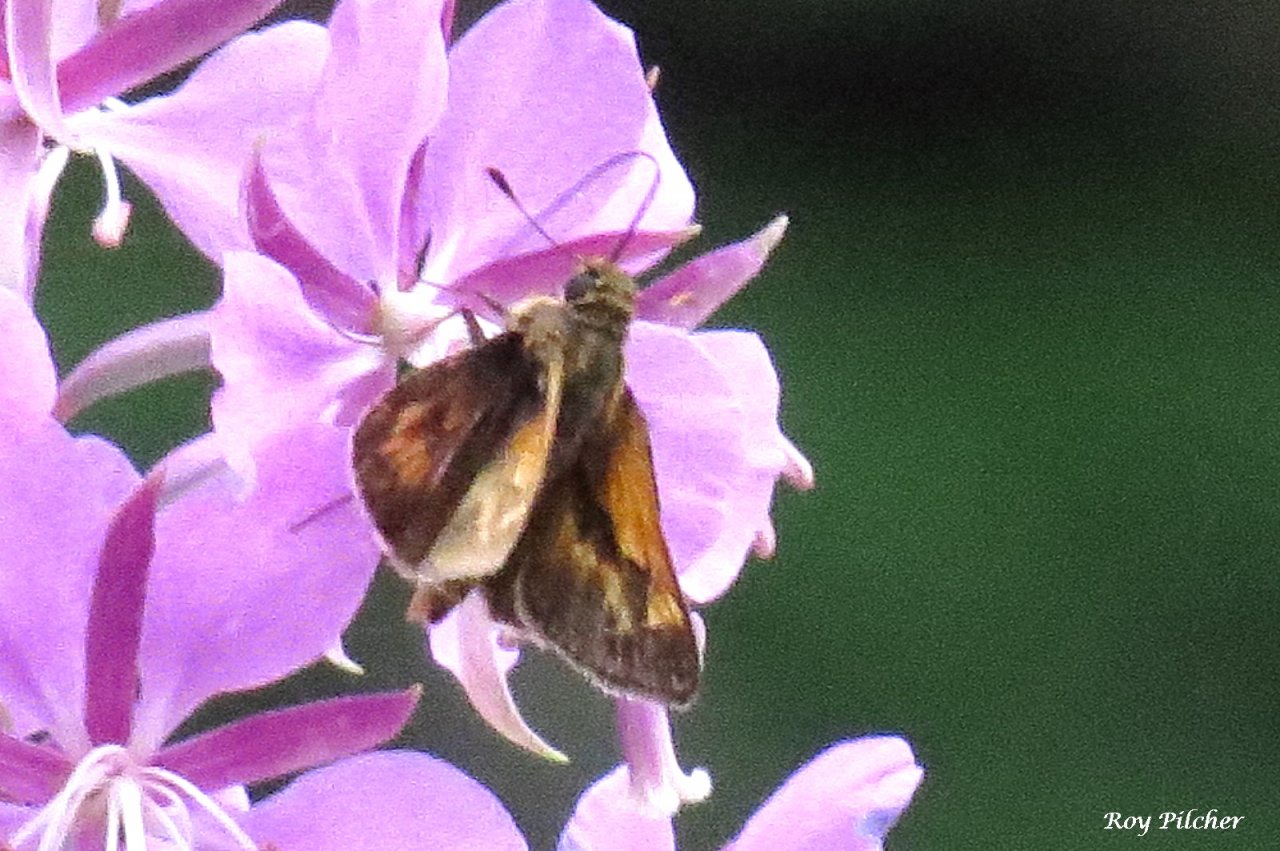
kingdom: Animalia
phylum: Arthropoda
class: Insecta
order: Lepidoptera
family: Hesperiidae
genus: Hesperia
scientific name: Hesperia sassacus
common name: Sassacus Skipper
